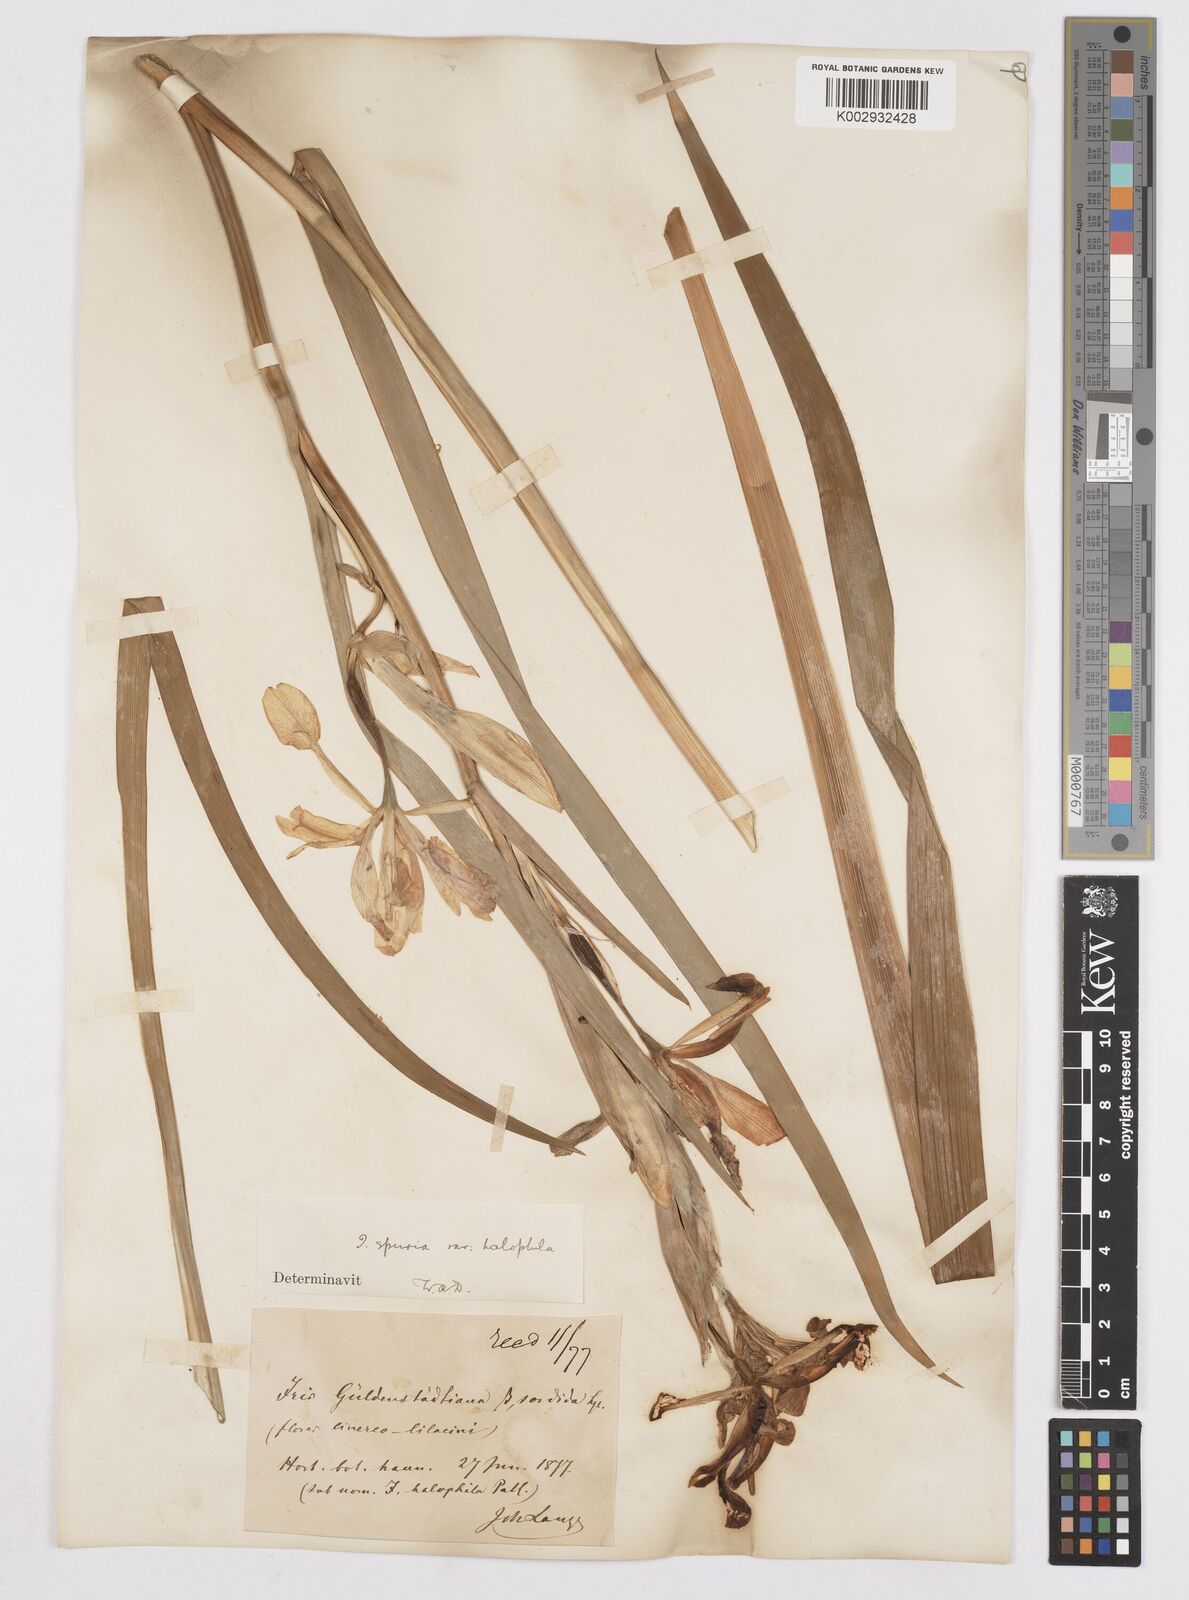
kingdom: Plantae
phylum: Tracheophyta
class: Liliopsida
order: Asparagales
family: Iridaceae
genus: Iris
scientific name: Iris halophila
